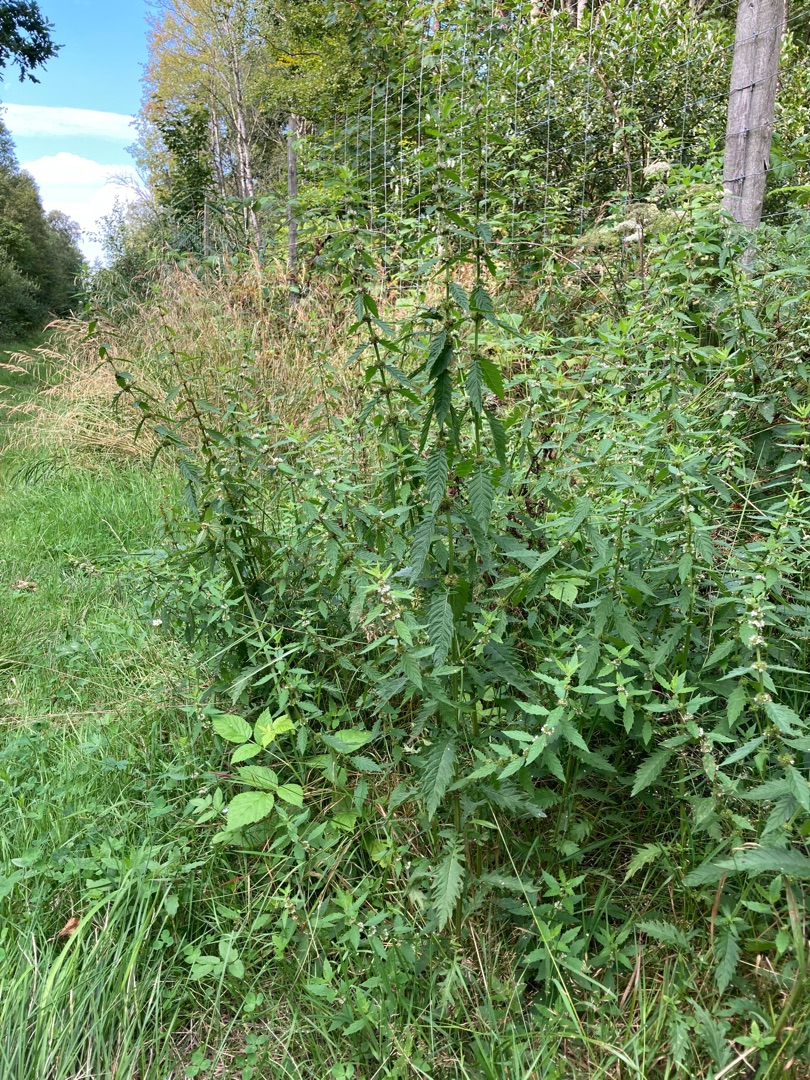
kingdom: Plantae
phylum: Tracheophyta
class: Magnoliopsida
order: Lamiales
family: Lamiaceae
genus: Lycopus
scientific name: Lycopus europaeus
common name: Sværtevæld
